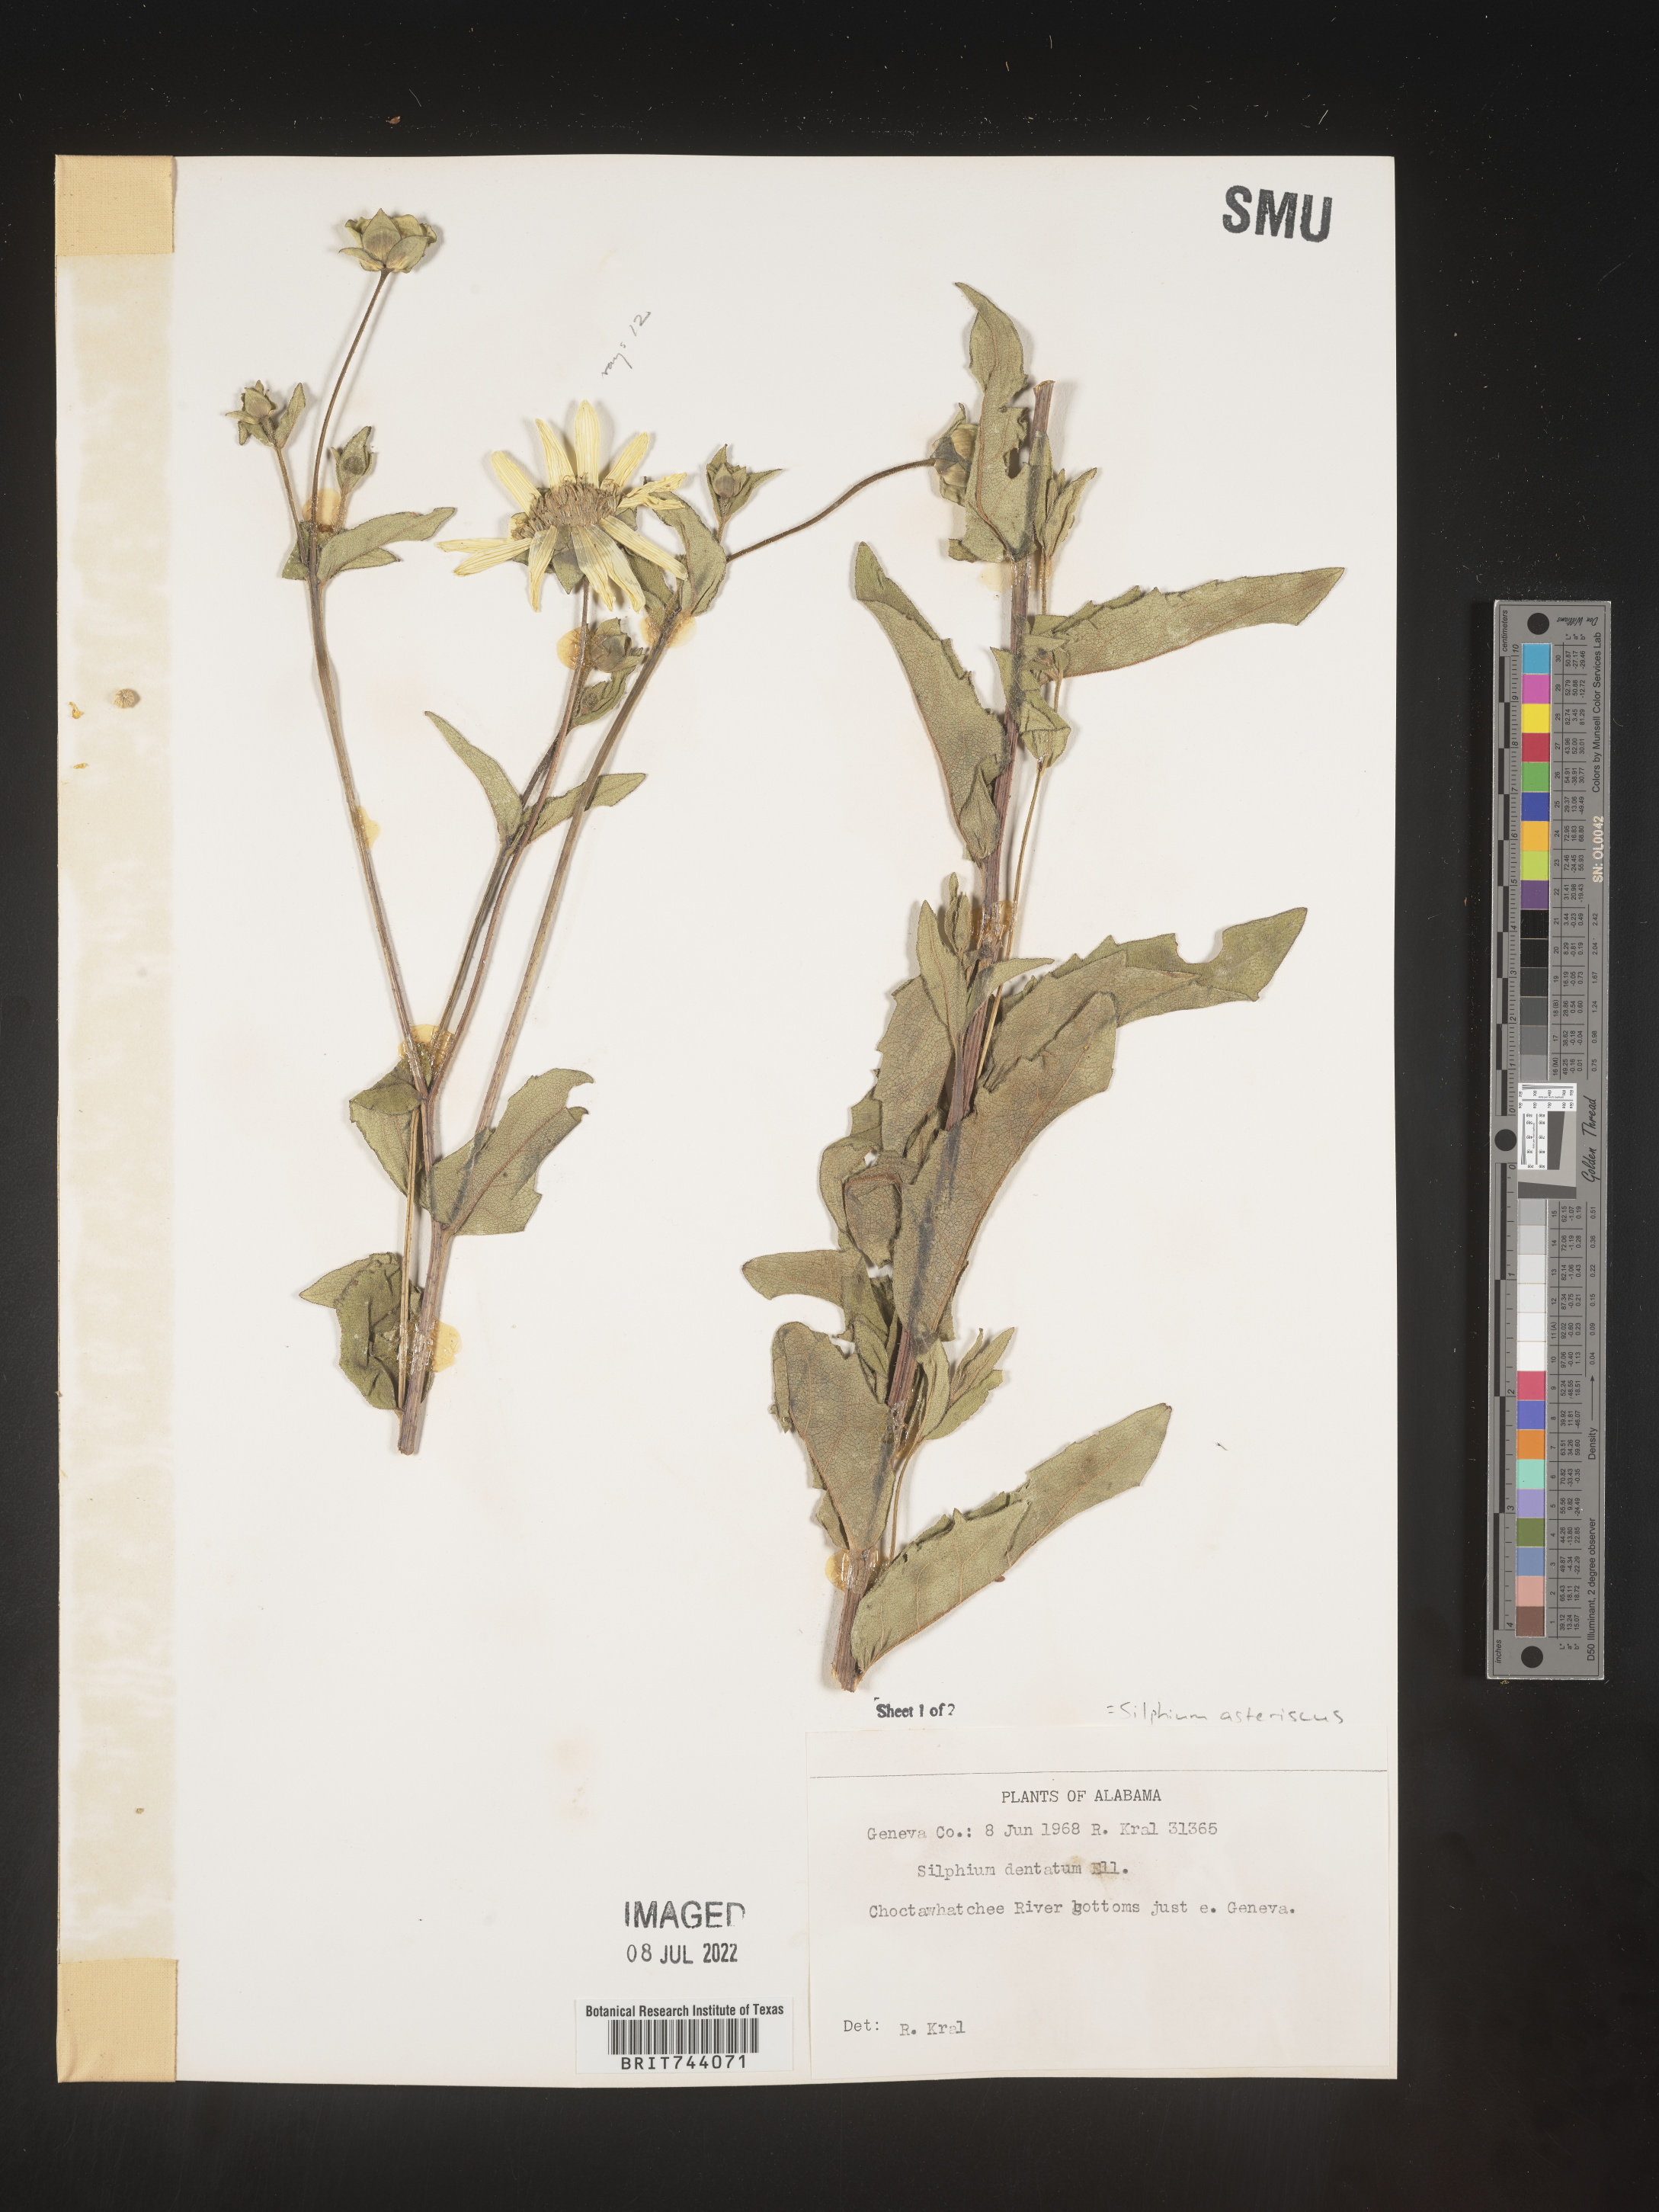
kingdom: Plantae
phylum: Tracheophyta
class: Magnoliopsida
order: Asterales
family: Asteraceae
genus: Silphium
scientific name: Silphium asperrimum
